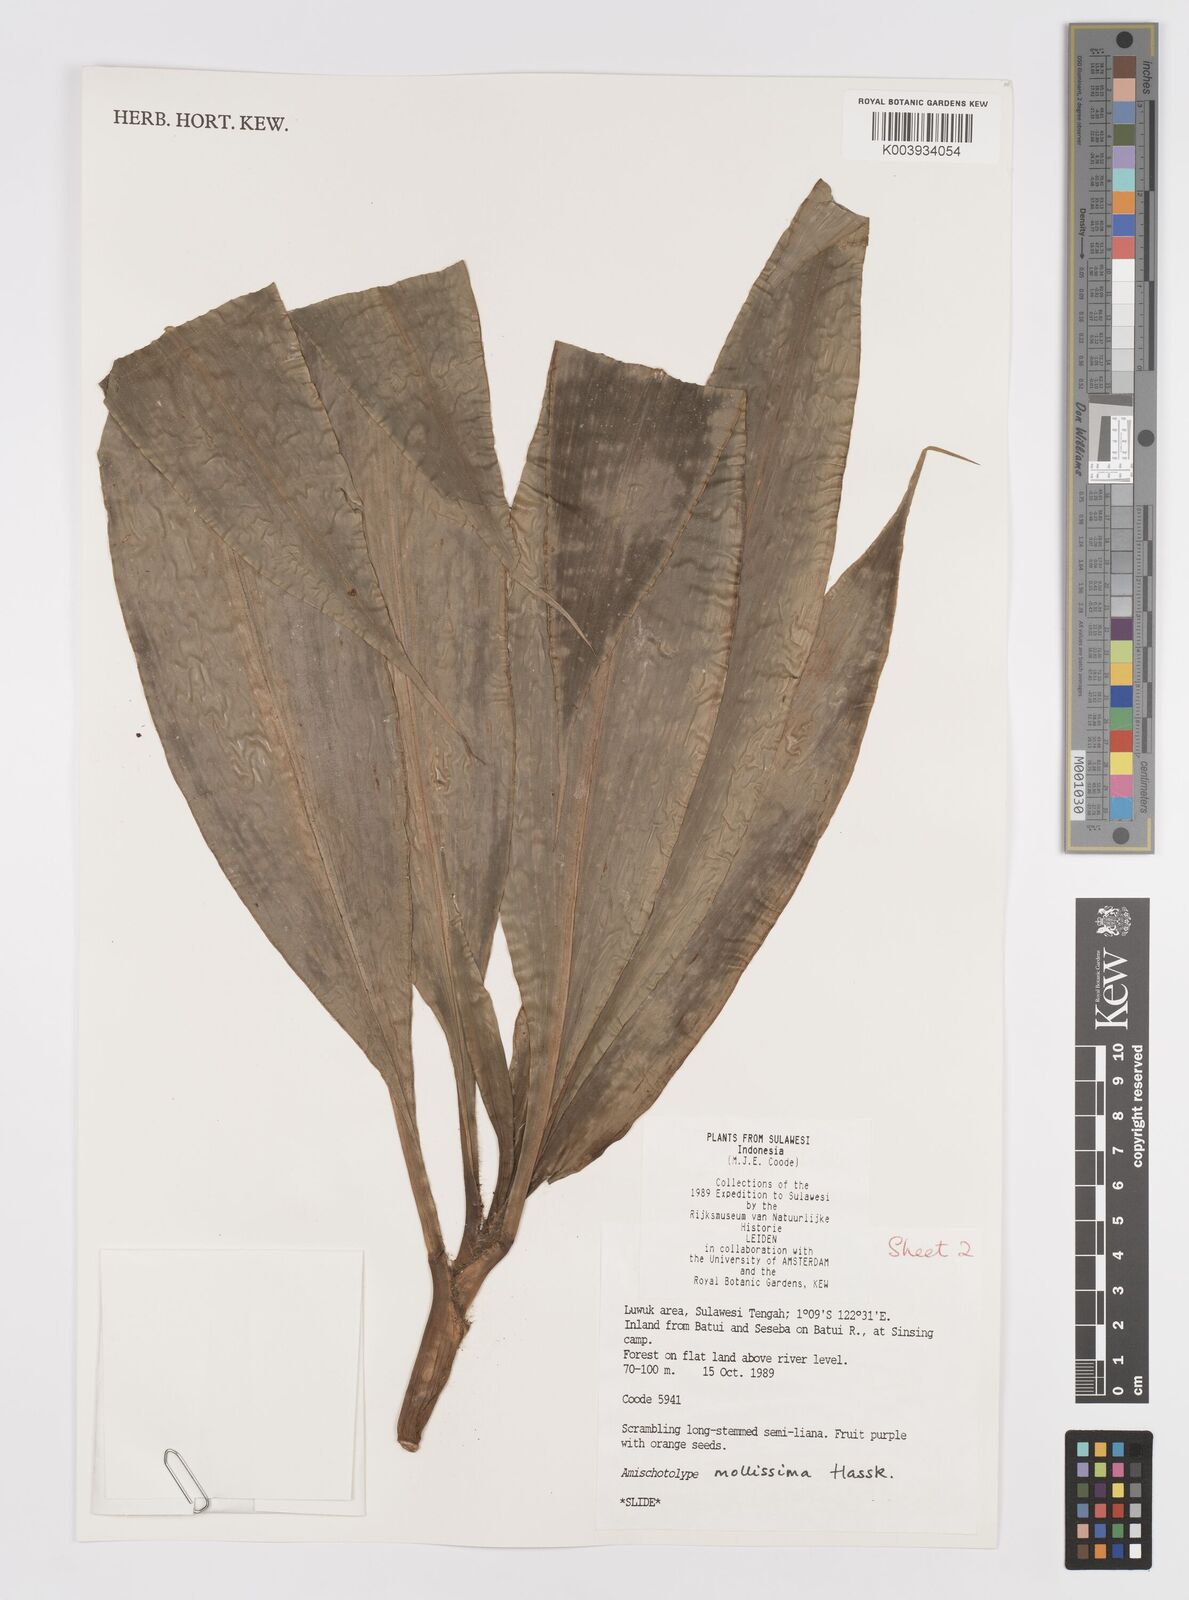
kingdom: Plantae
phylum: Tracheophyta
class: Liliopsida
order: Commelinales
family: Commelinaceae
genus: Amischotolype
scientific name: Amischotolype mollissima
